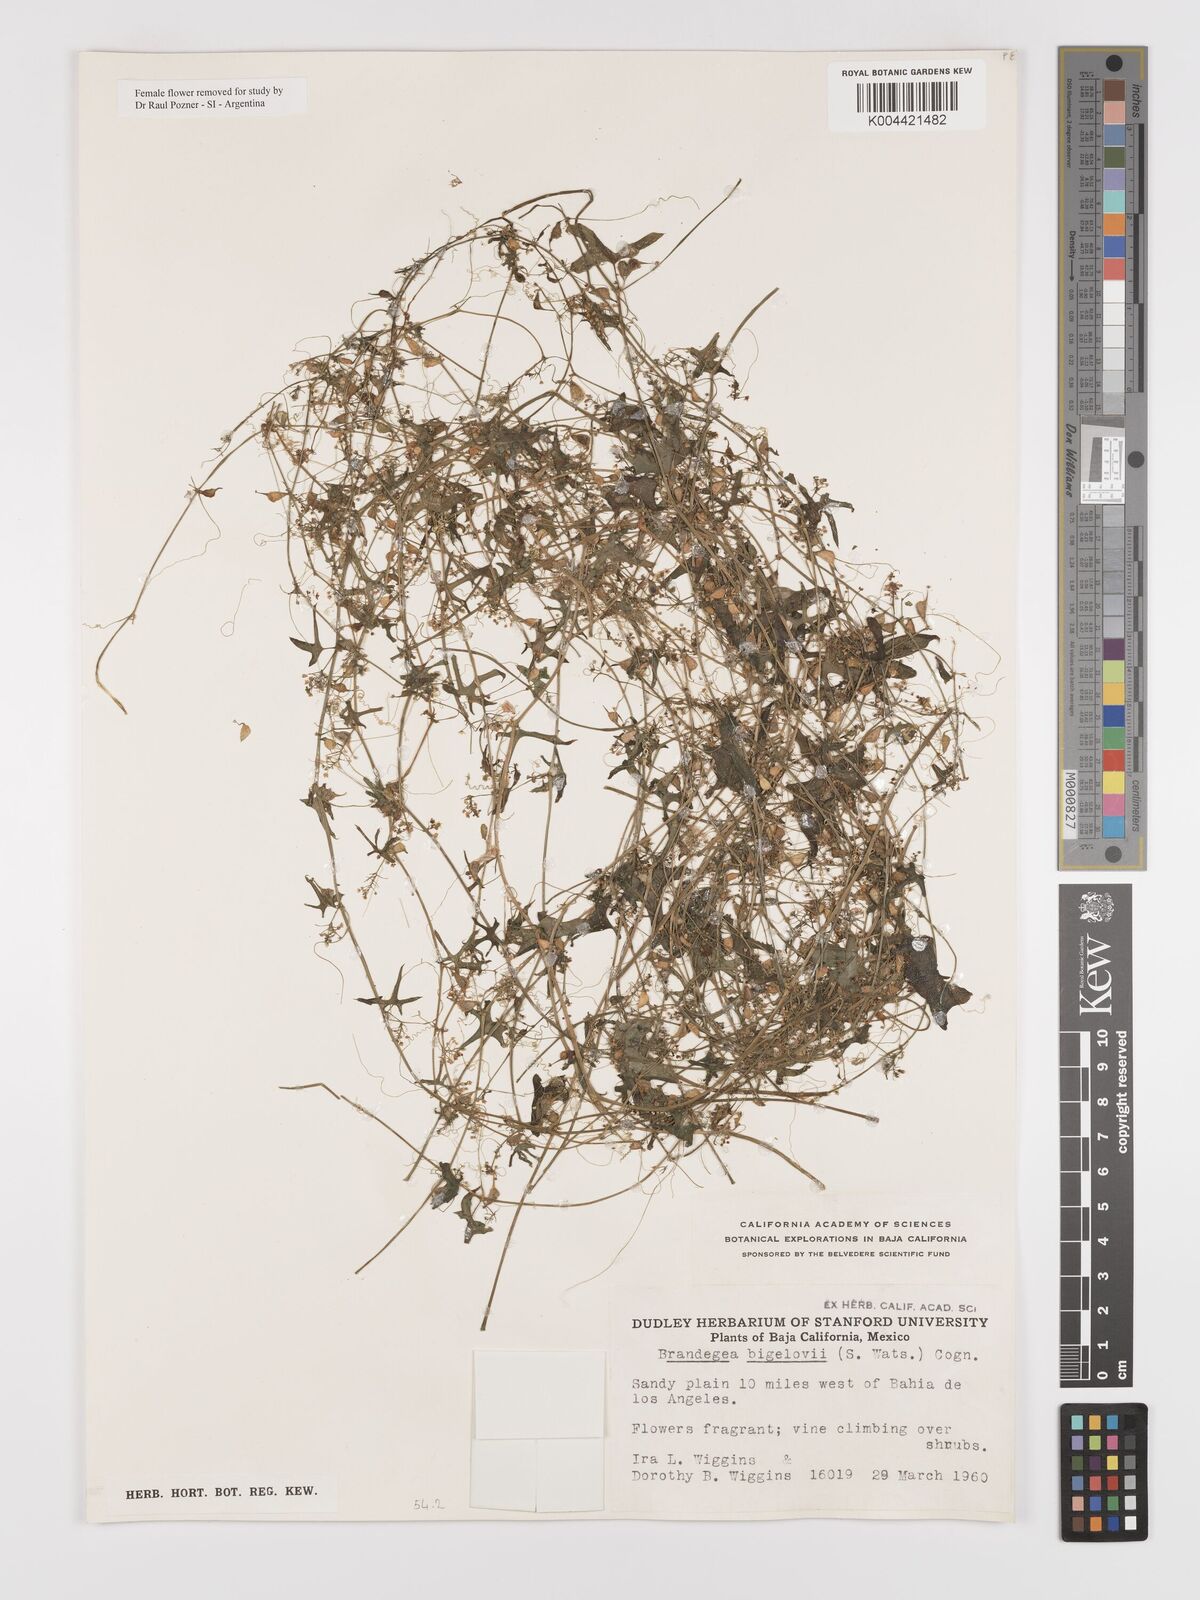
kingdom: Plantae
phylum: Tracheophyta
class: Magnoliopsida
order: Cucurbitales
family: Cucurbitaceae
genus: Echinopepon
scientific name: Echinopepon bigelovii
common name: Desert starvine
